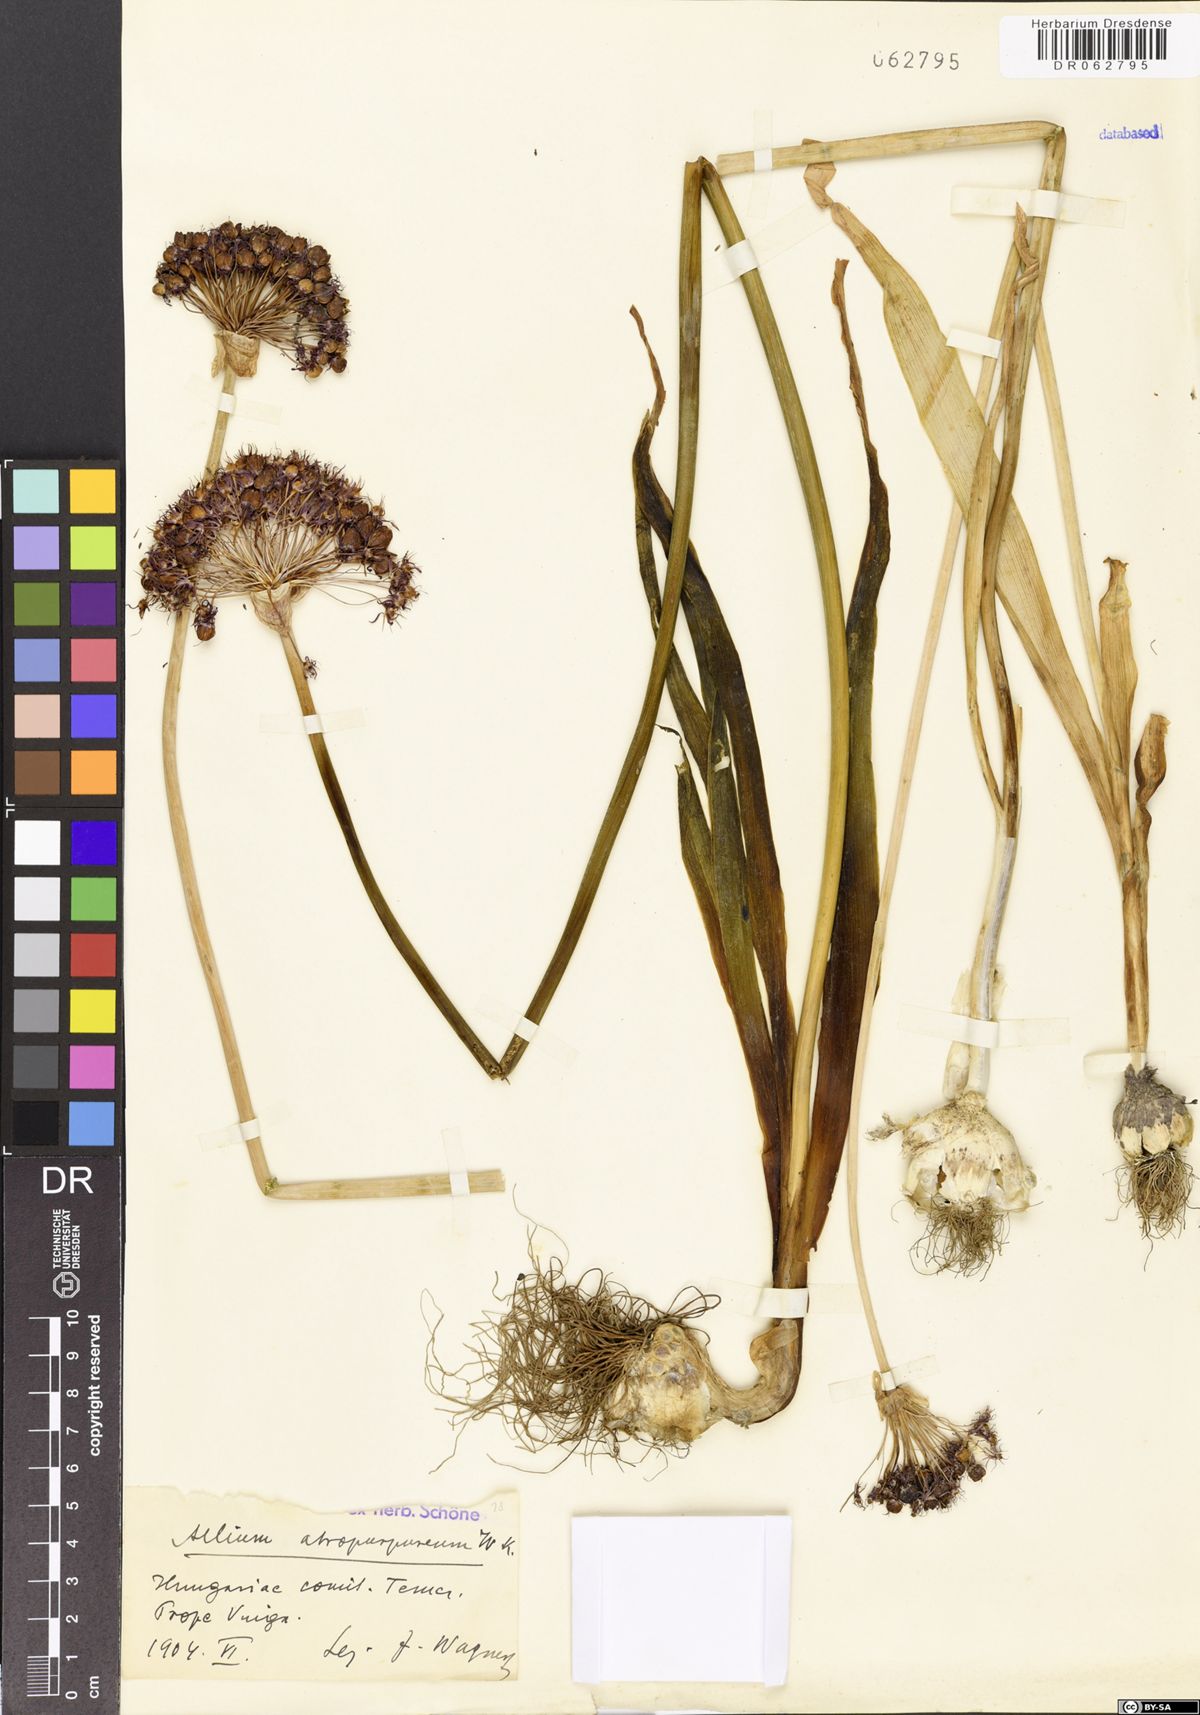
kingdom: Plantae
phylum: Tracheophyta
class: Liliopsida
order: Asparagales
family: Amaryllidaceae
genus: Allium
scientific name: Allium atropurpureum
